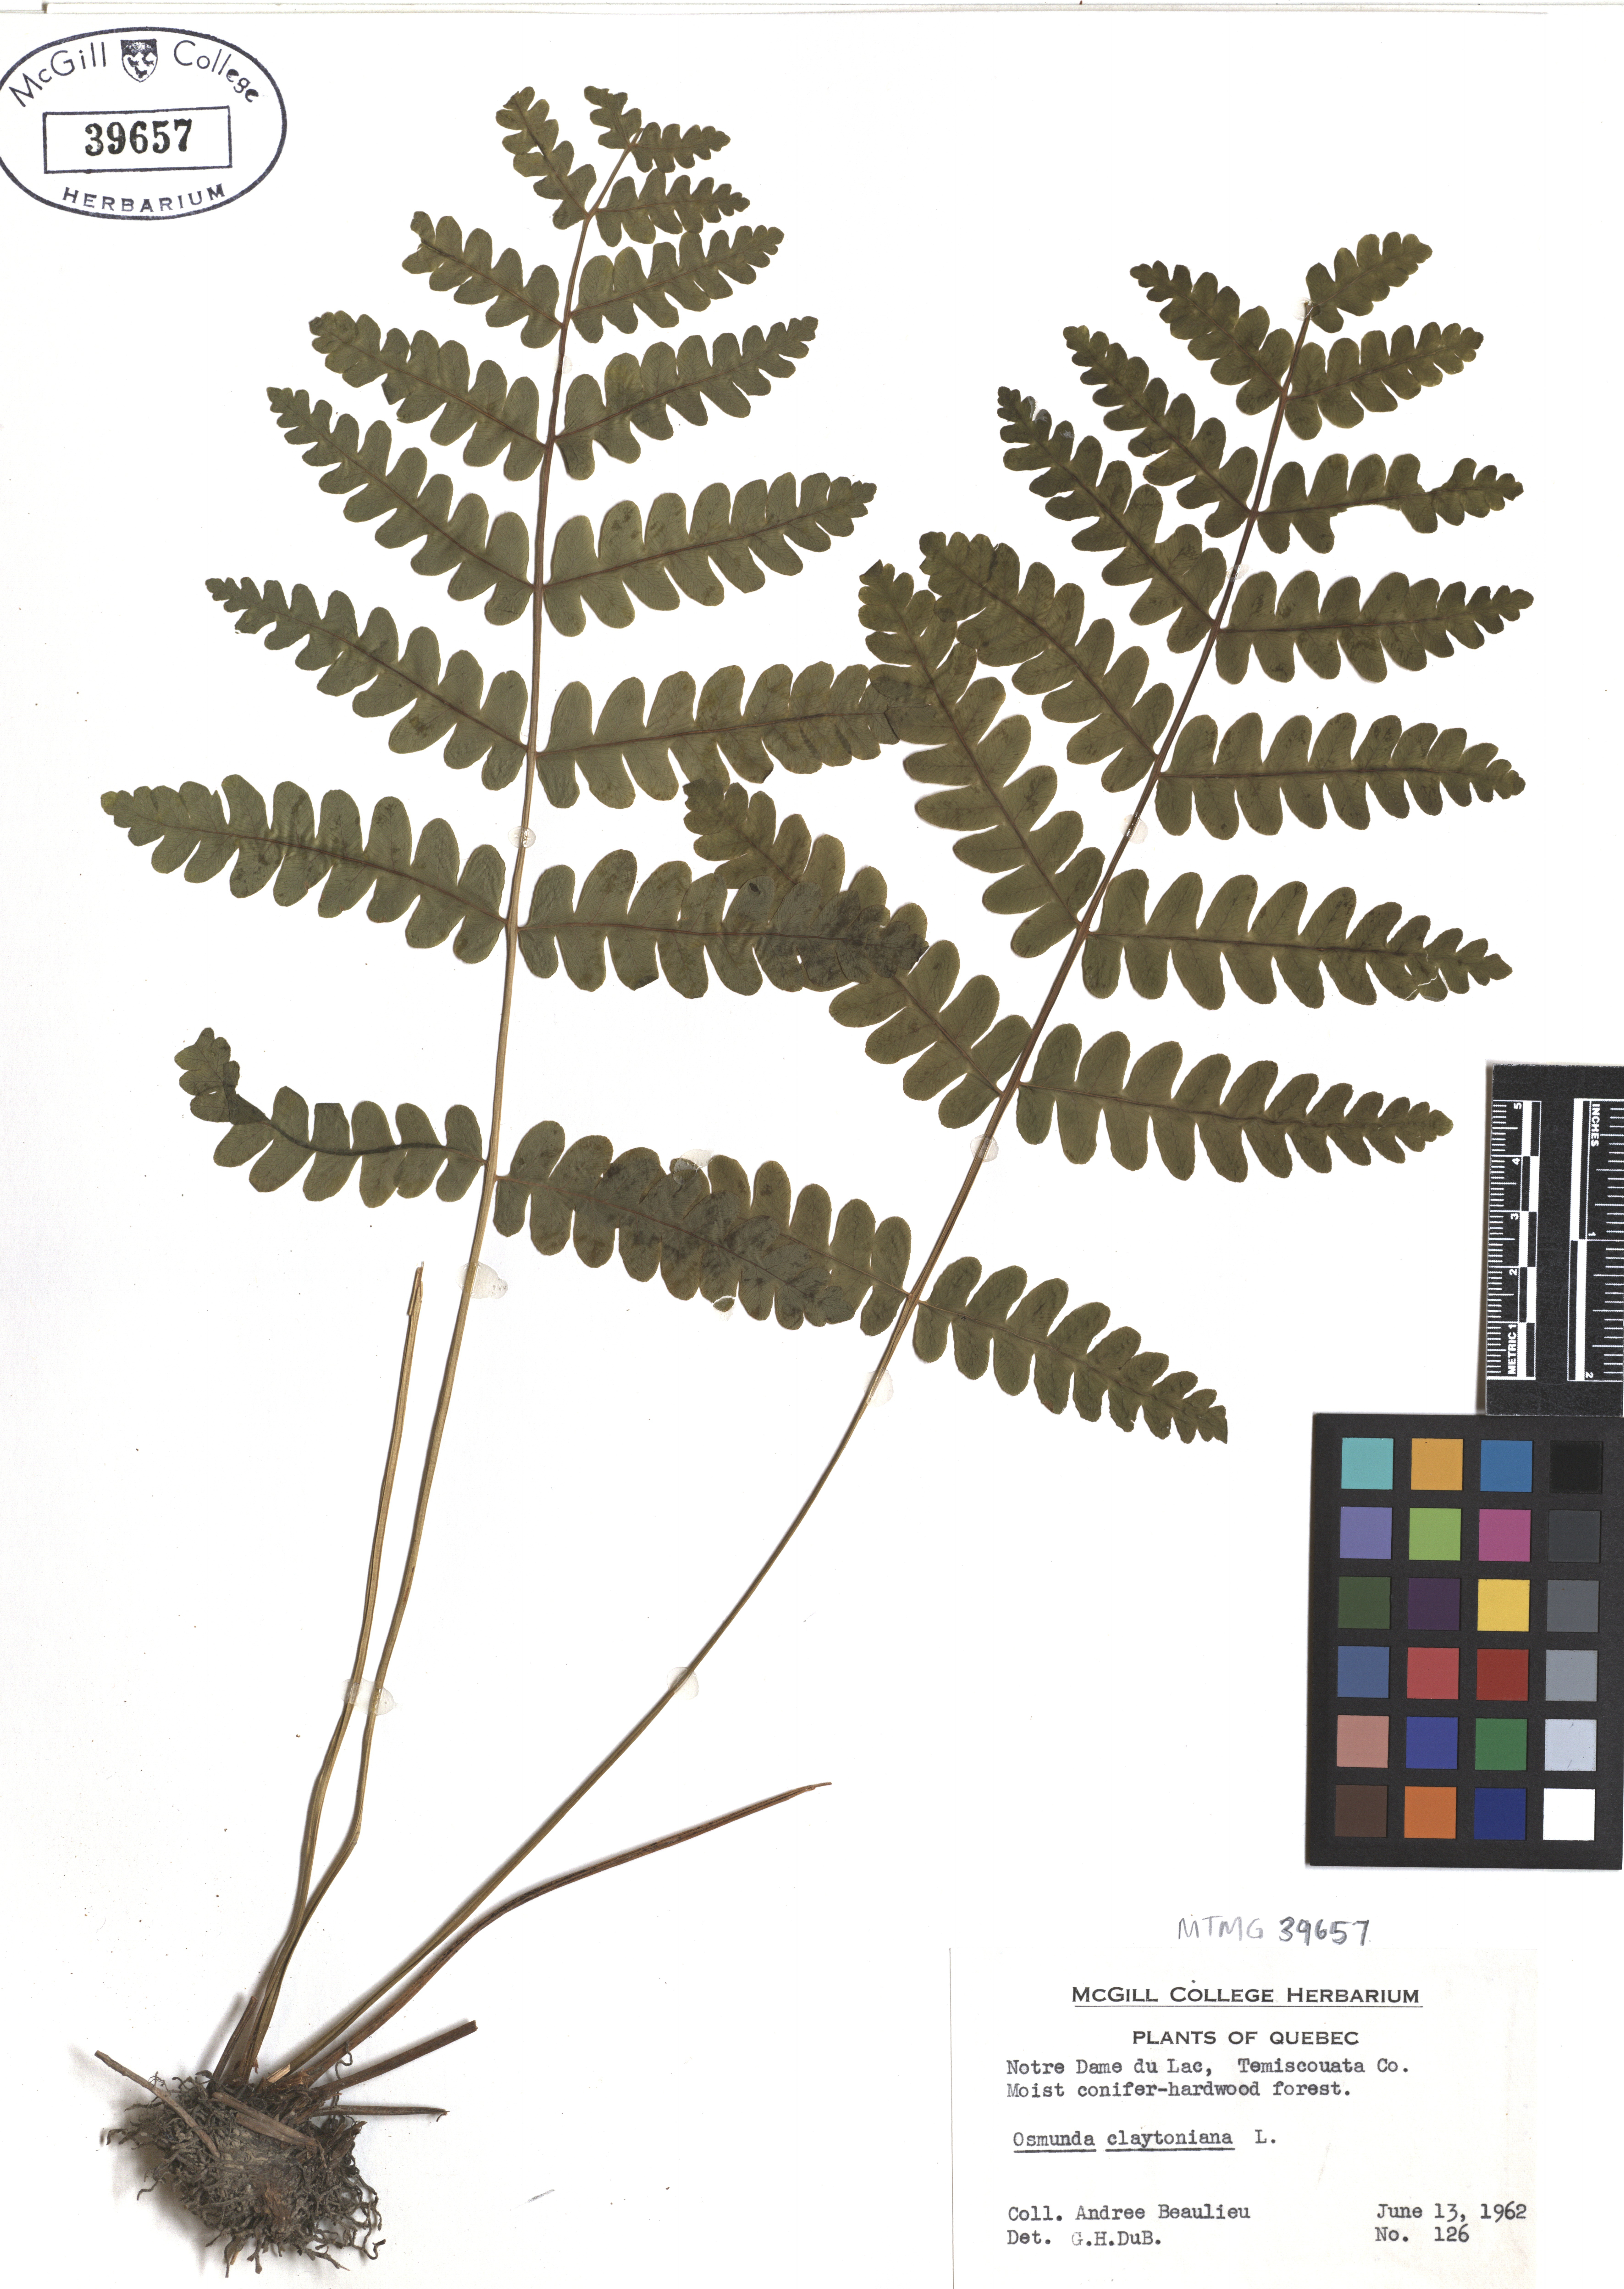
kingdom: Plantae
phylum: Tracheophyta
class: Polypodiopsida
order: Osmundales
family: Osmundaceae
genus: Claytosmunda
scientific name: Claytosmunda claytoniana
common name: Clayton's fern
